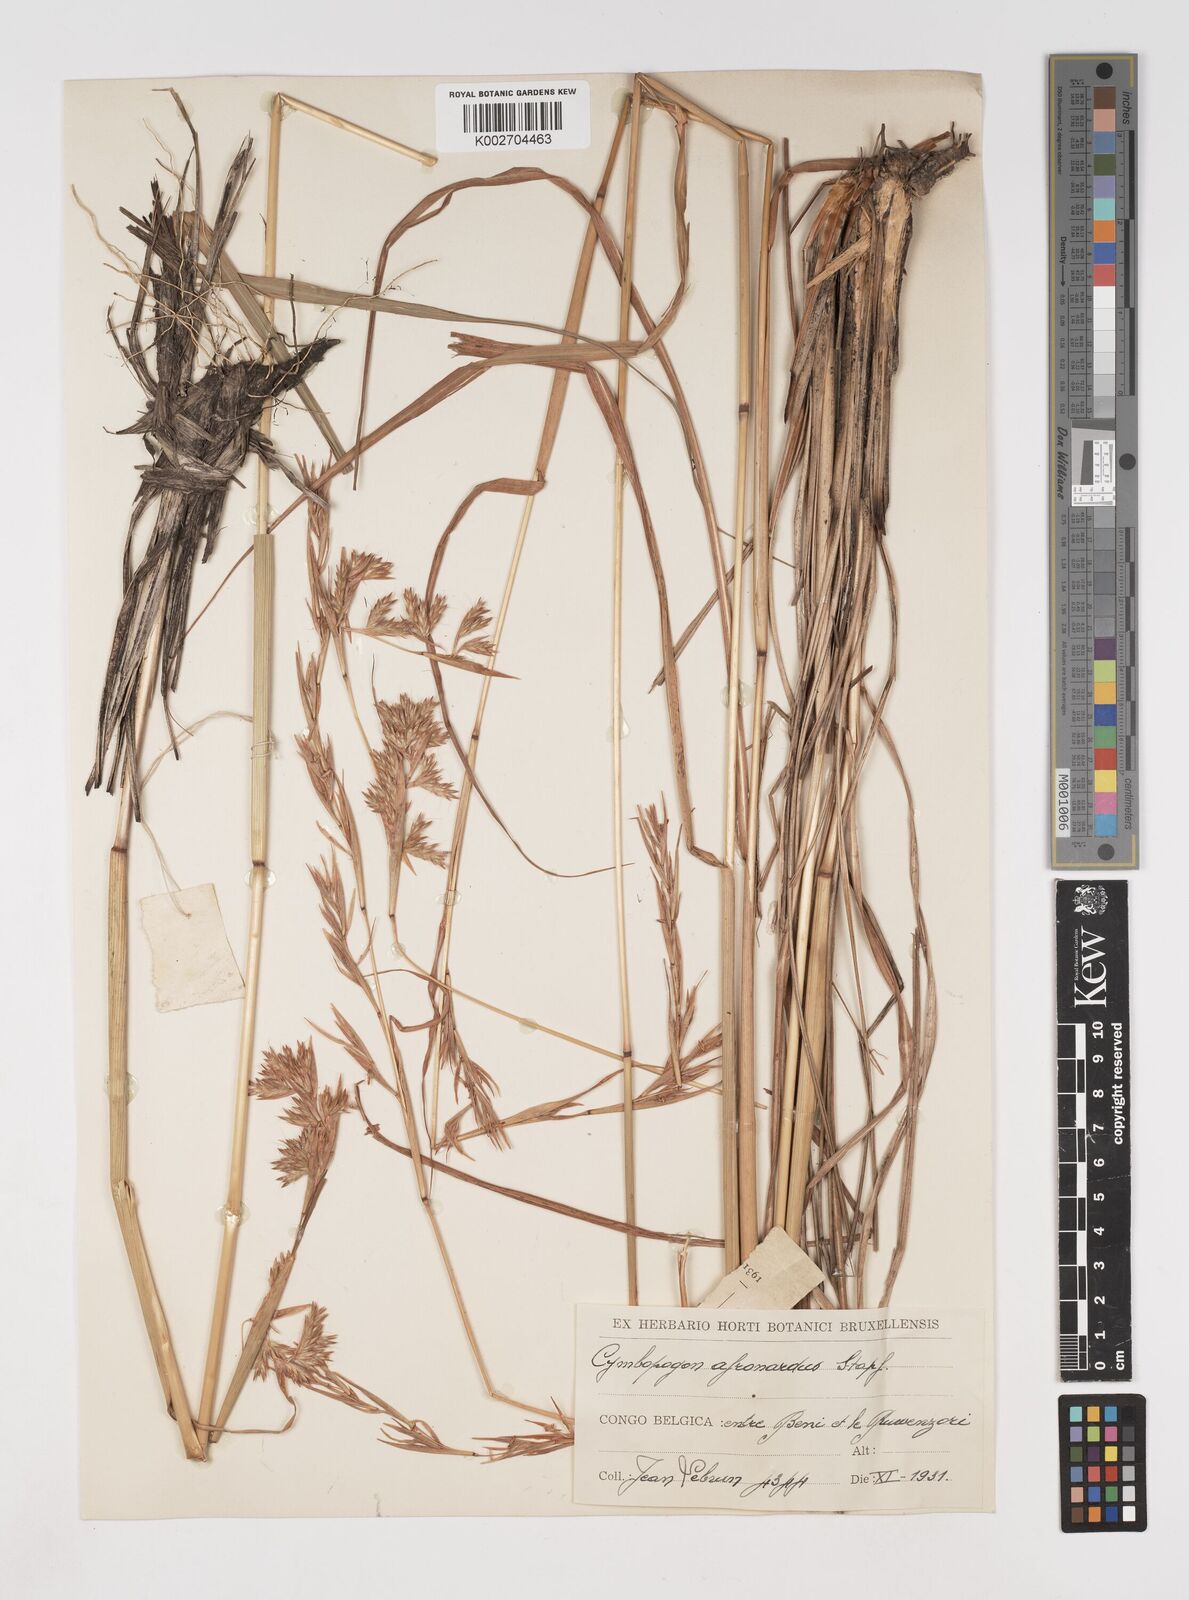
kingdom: Plantae
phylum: Tracheophyta
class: Liliopsida
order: Poales
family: Poaceae
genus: Cymbopogon
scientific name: Cymbopogon nardus
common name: Giant turpentine grass
